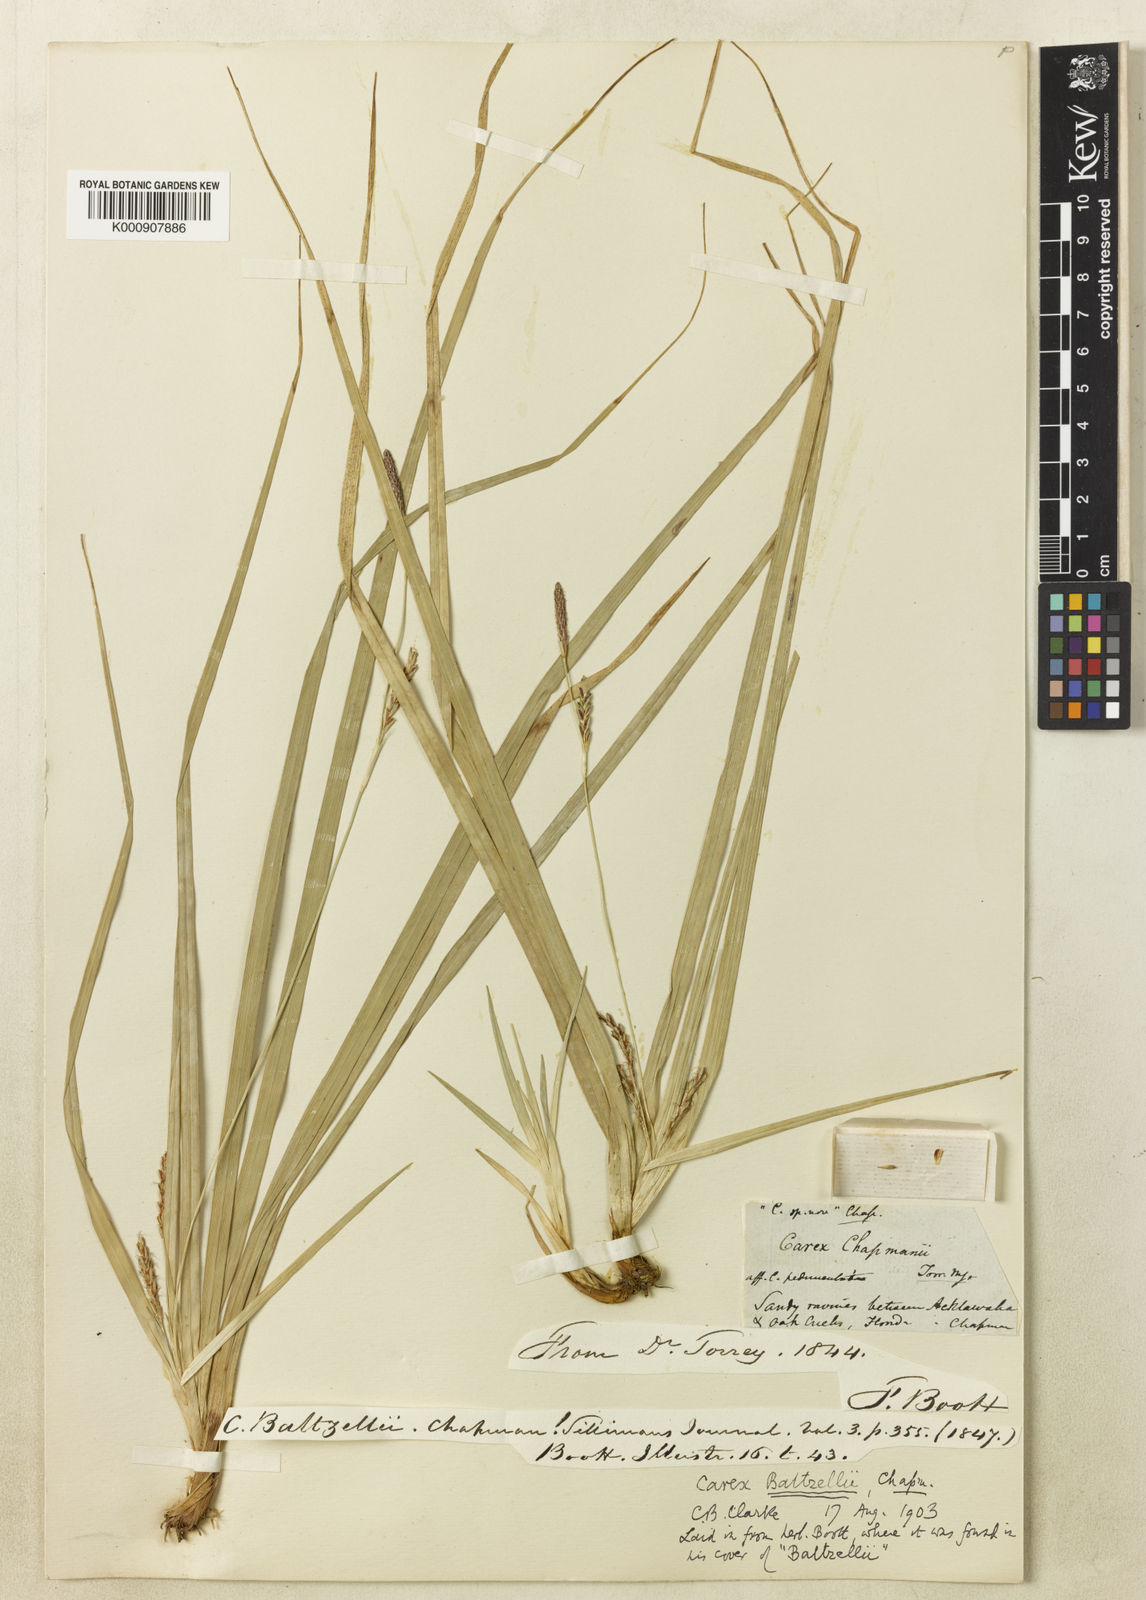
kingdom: Plantae
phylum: Tracheophyta
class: Liliopsida
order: Poales
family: Cyperaceae
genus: Carex
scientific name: Carex baltzellii
